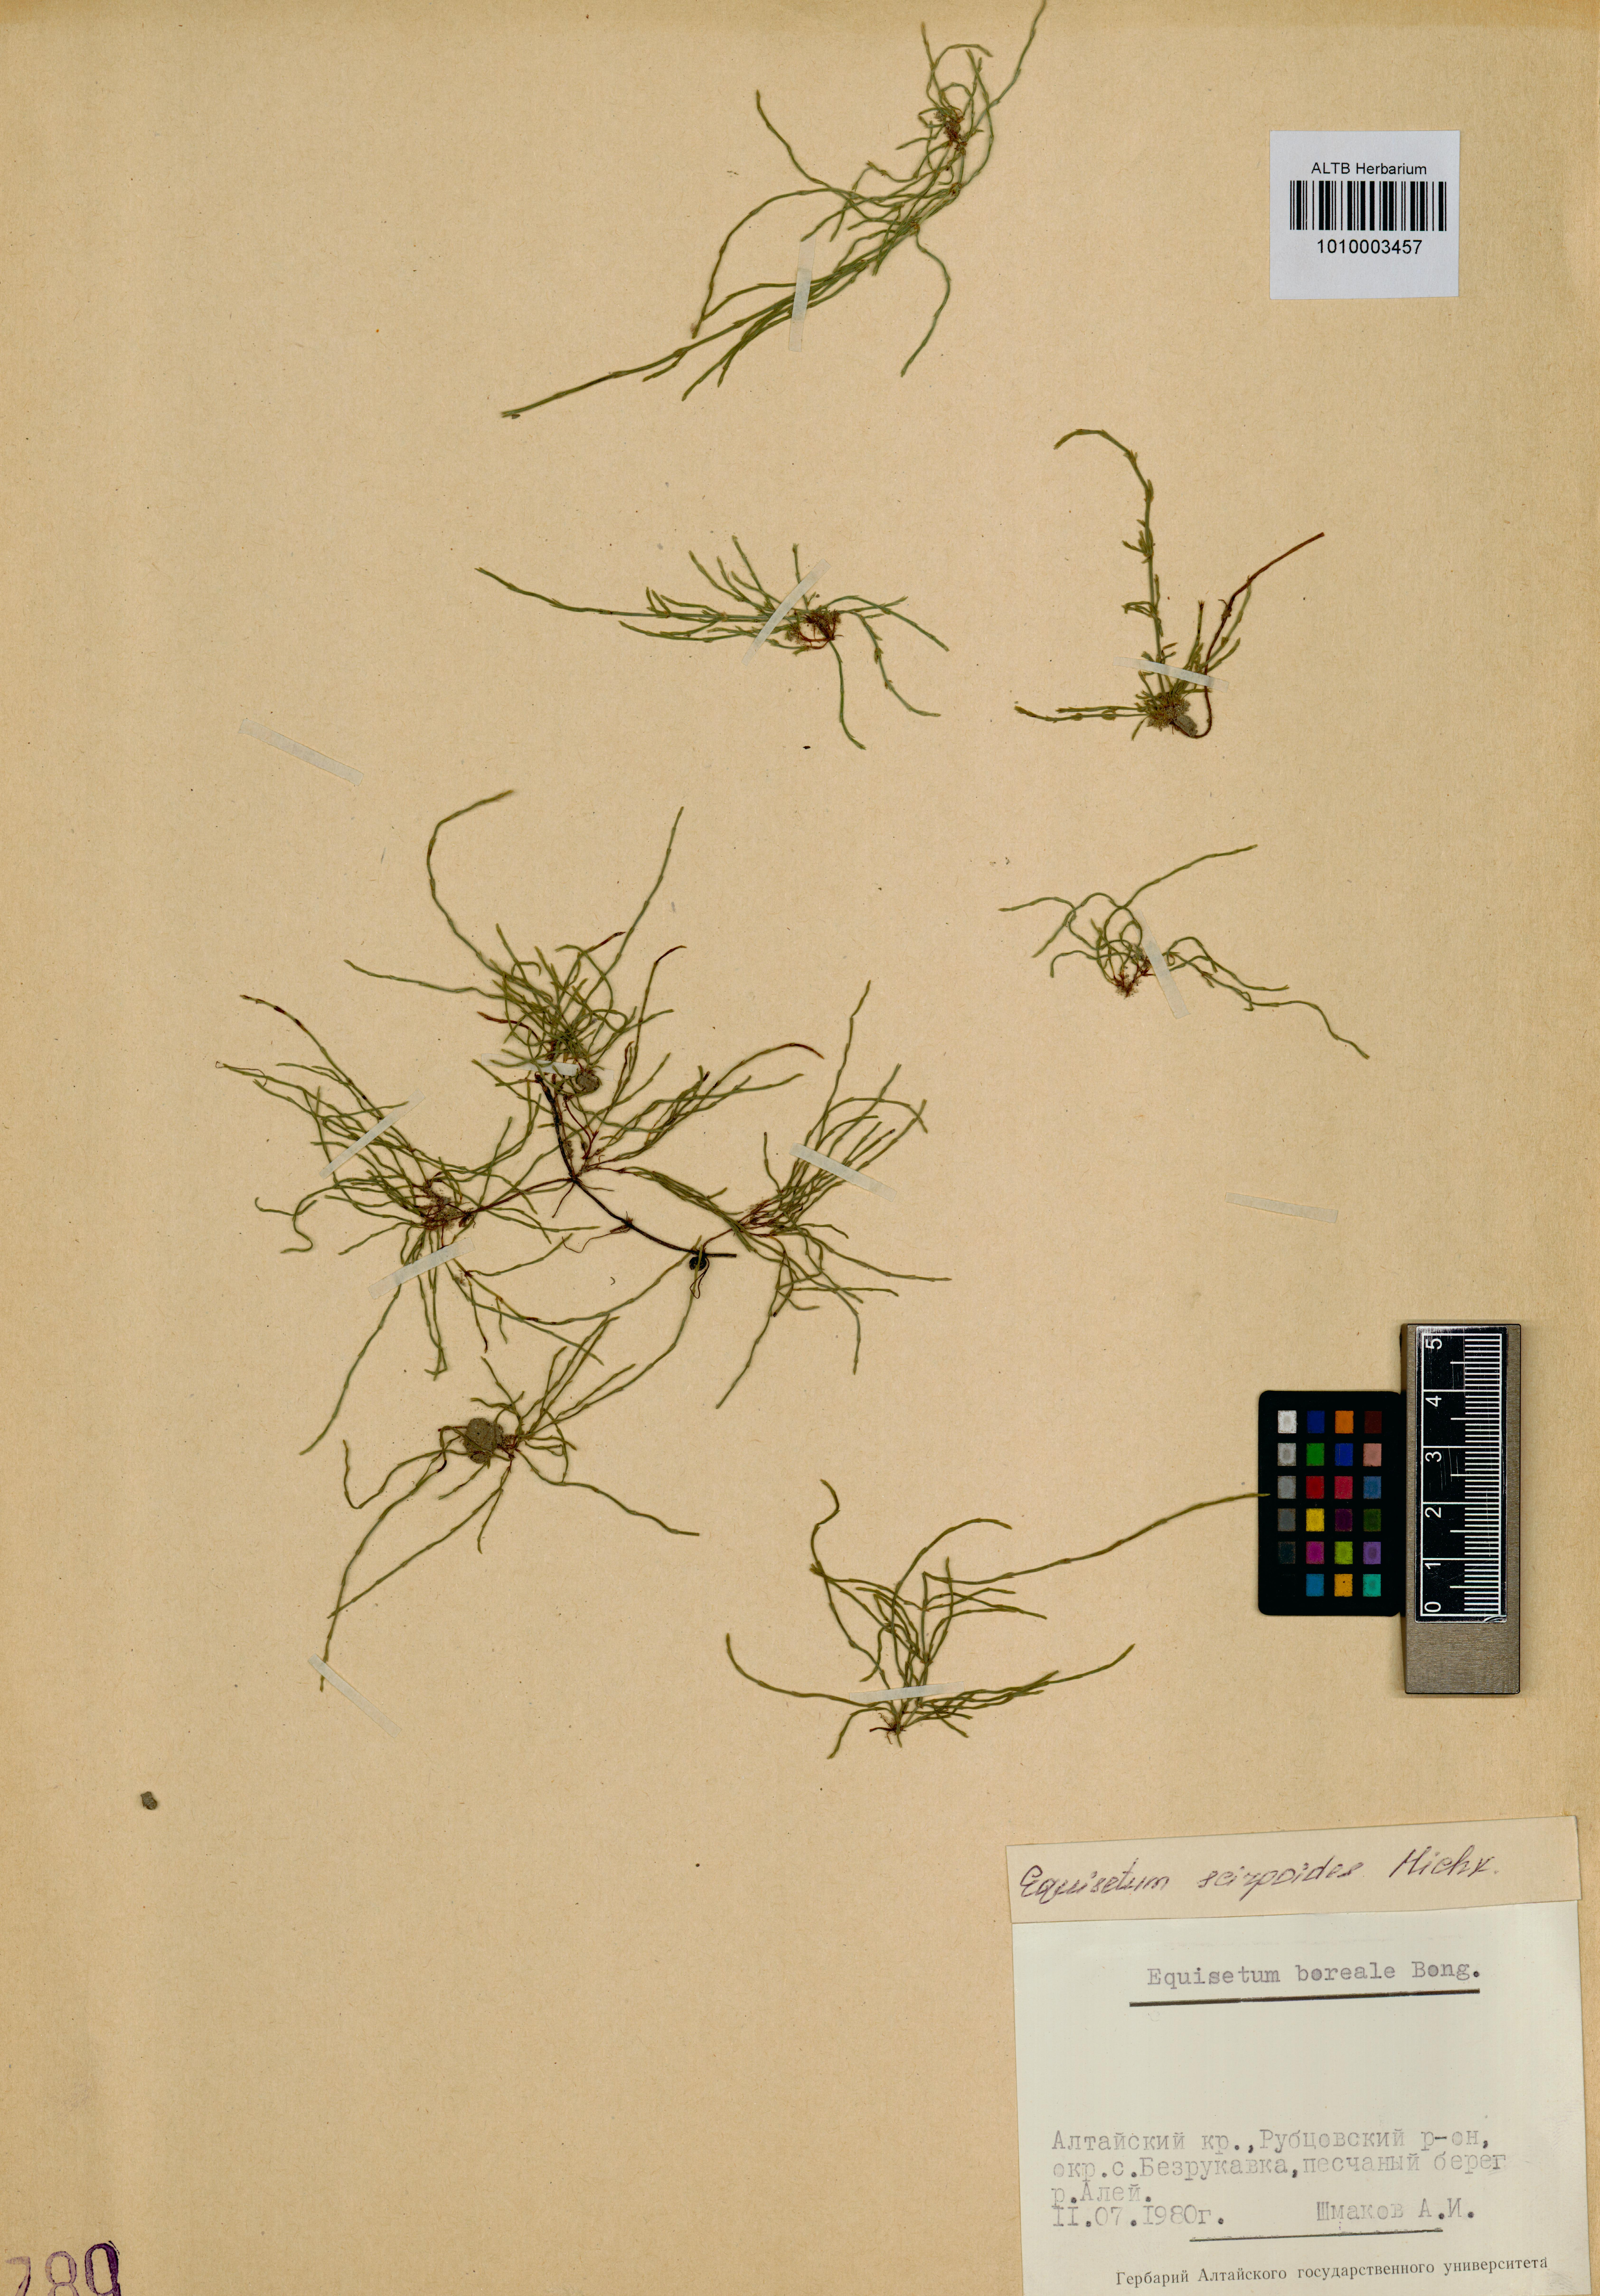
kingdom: Plantae
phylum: Tracheophyta
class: Polypodiopsida
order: Equisetales
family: Equisetaceae
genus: Equisetum
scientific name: Equisetum scirpoides
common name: Delicate horsetail
